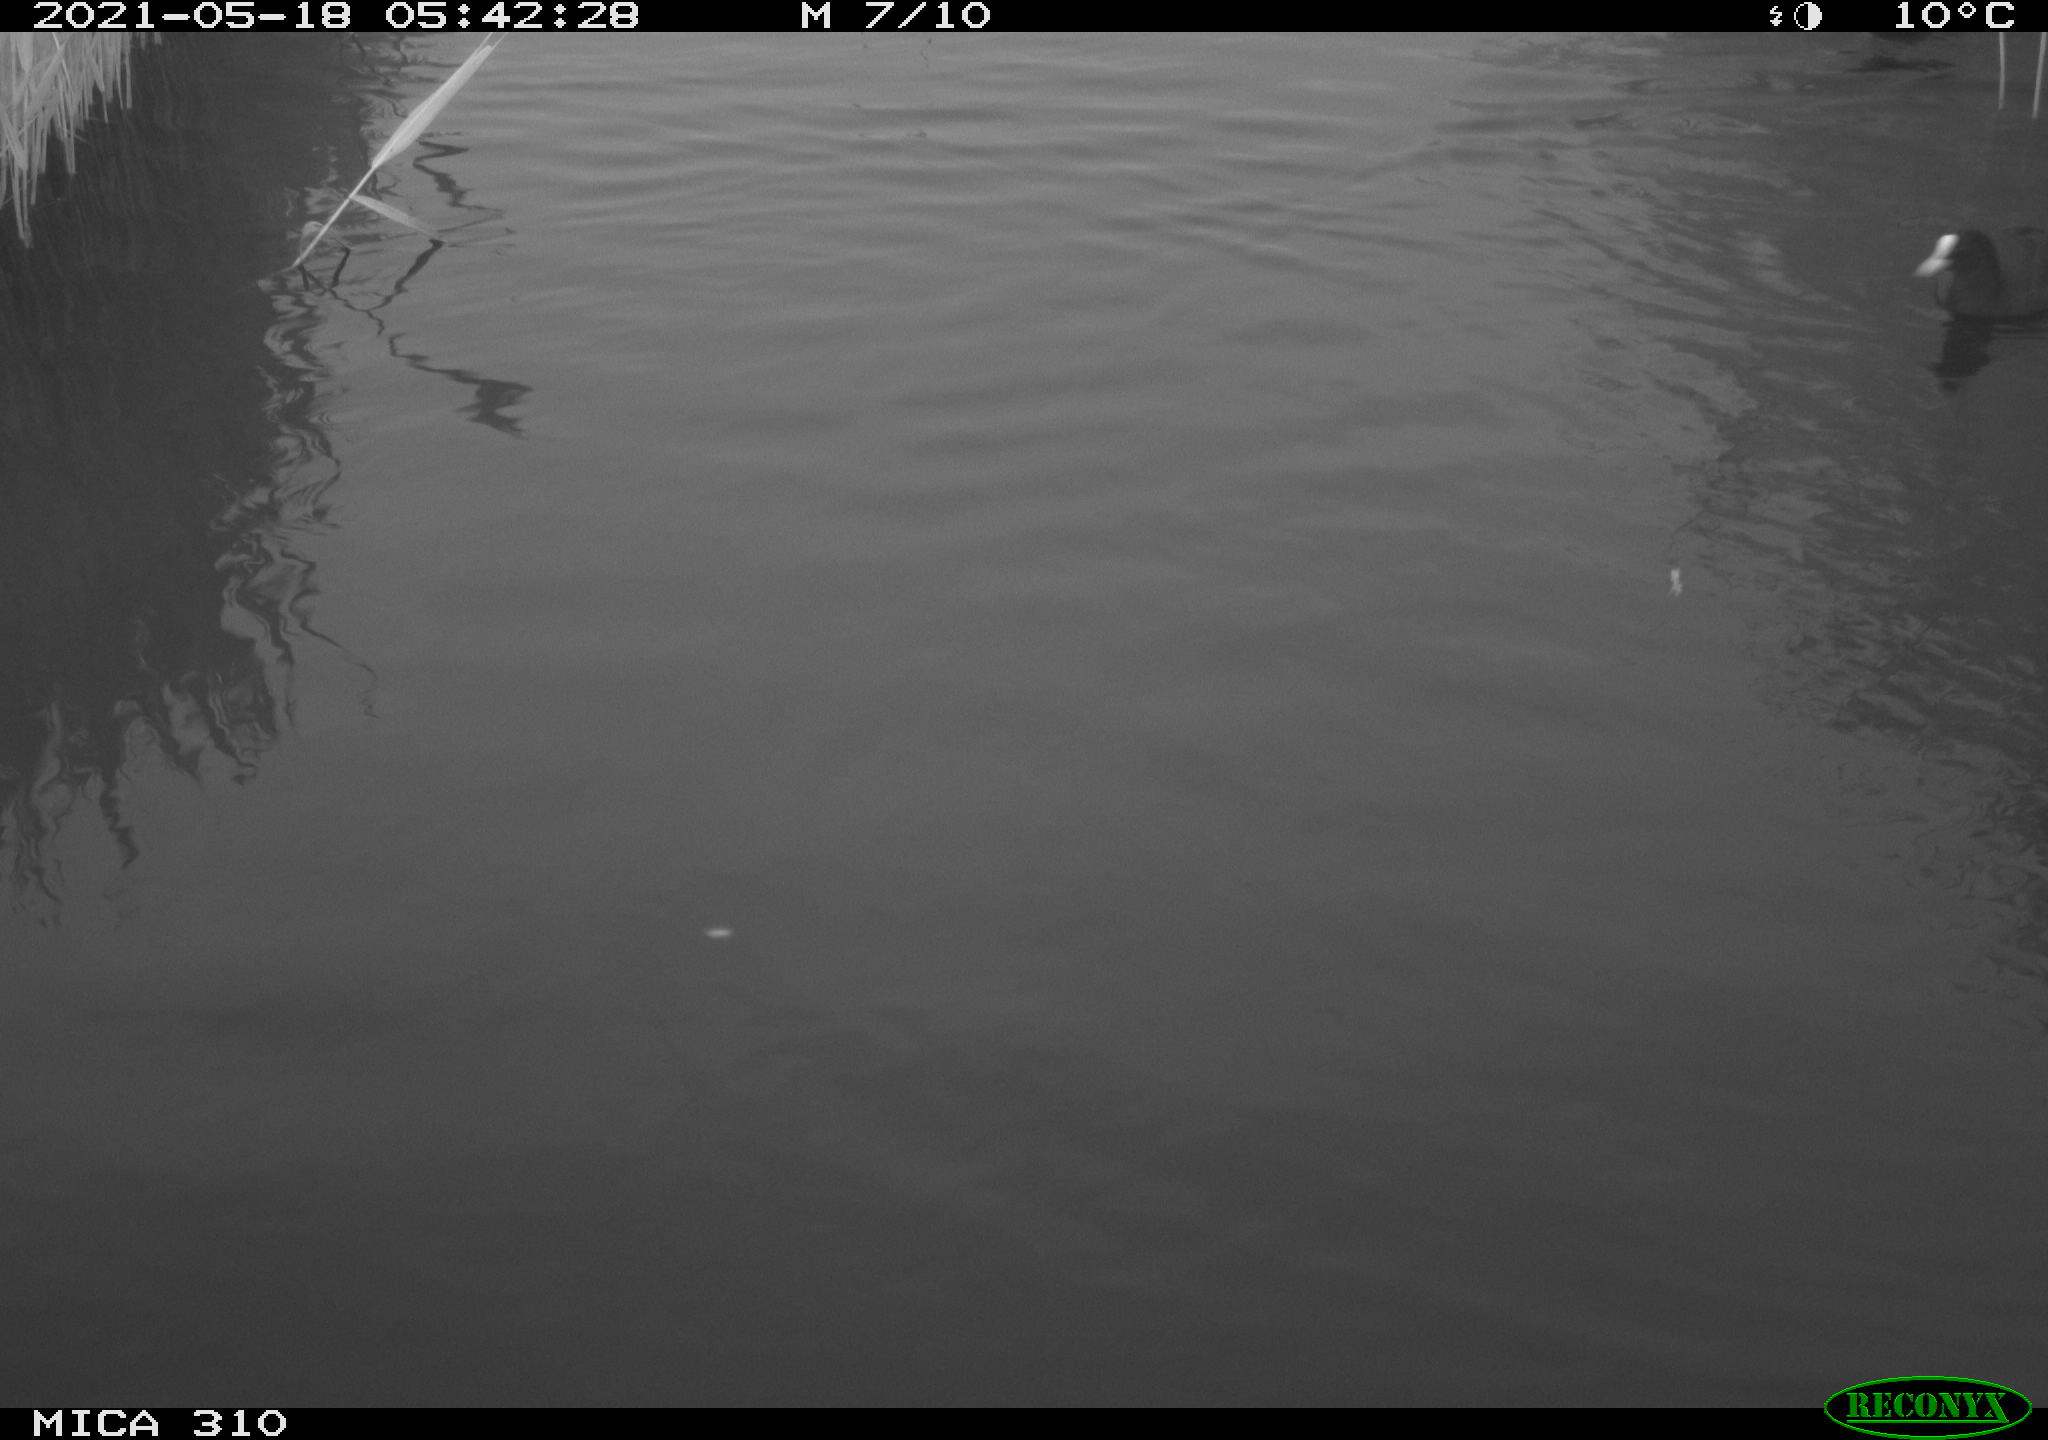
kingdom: Animalia
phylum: Chordata
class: Aves
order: Gruiformes
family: Rallidae
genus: Fulica
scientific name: Fulica atra
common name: Eurasian coot
